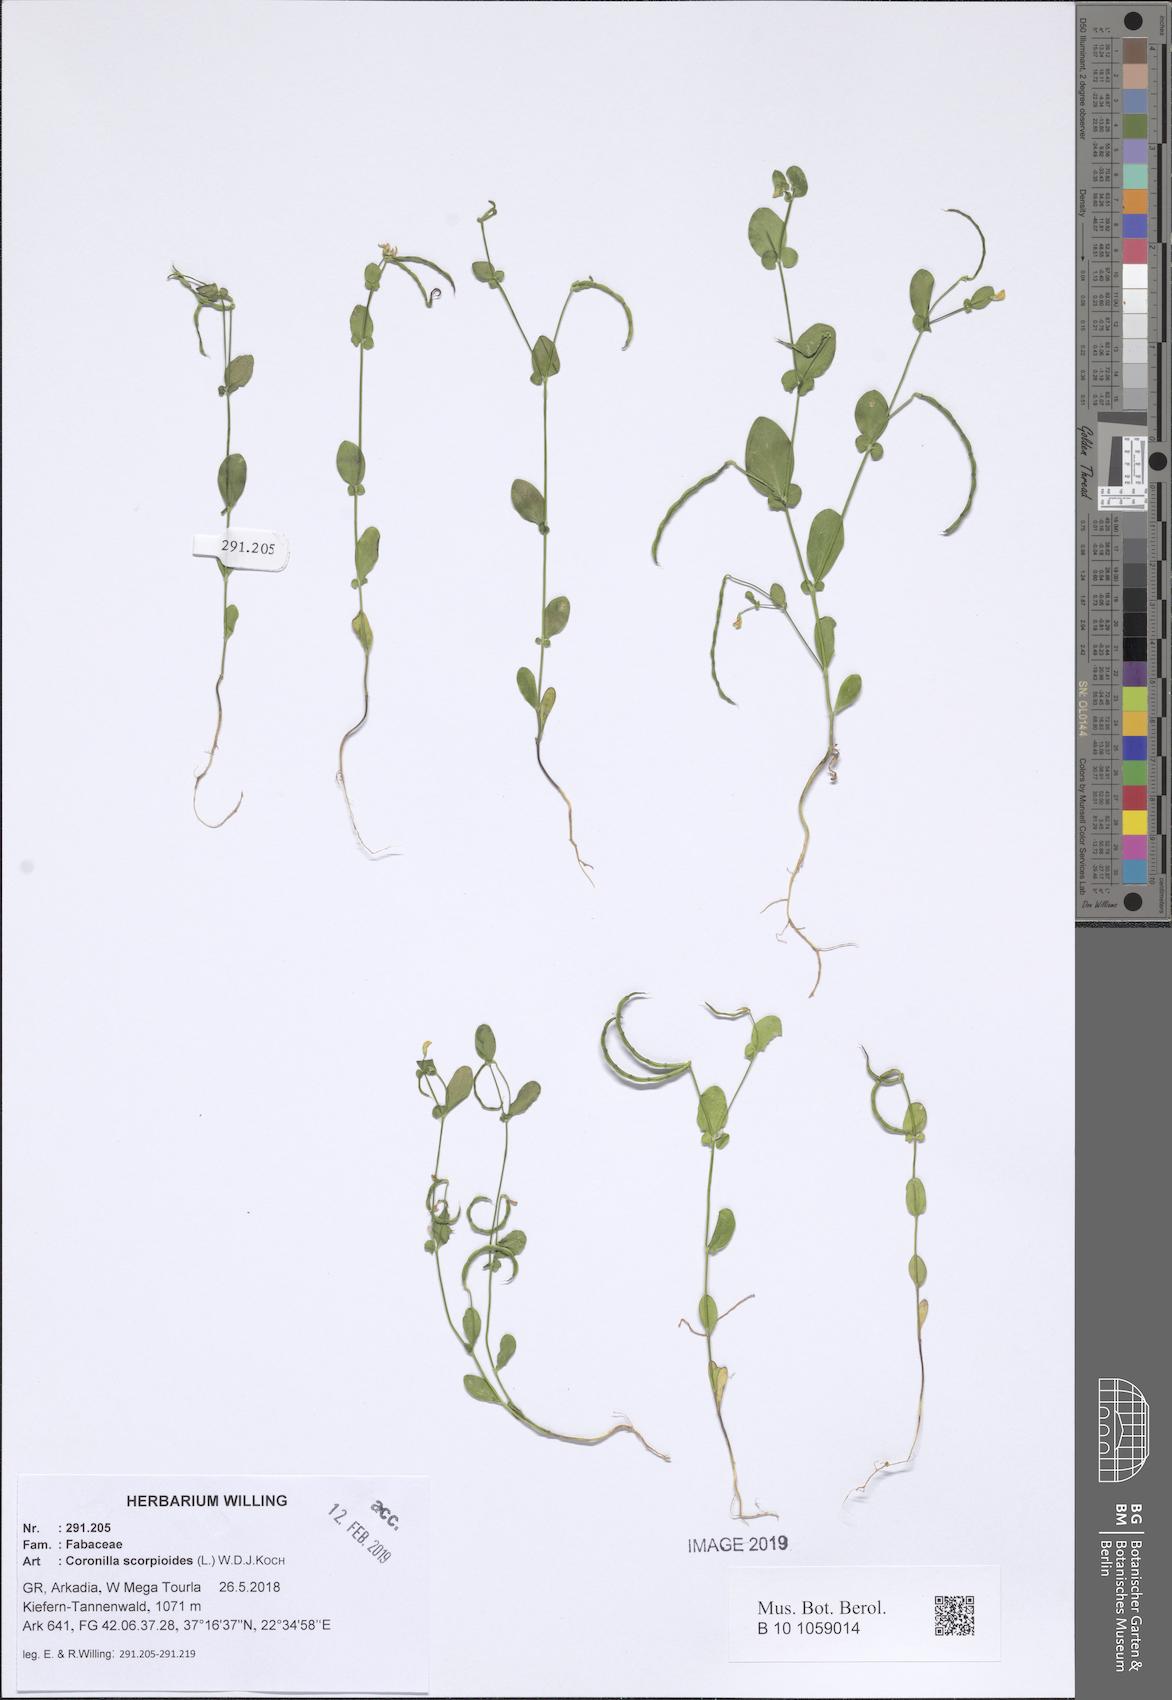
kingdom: Plantae
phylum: Tracheophyta
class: Magnoliopsida
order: Fabales
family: Fabaceae
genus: Coronilla
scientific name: Coronilla scorpioides
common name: Annual scorpion-vetch
